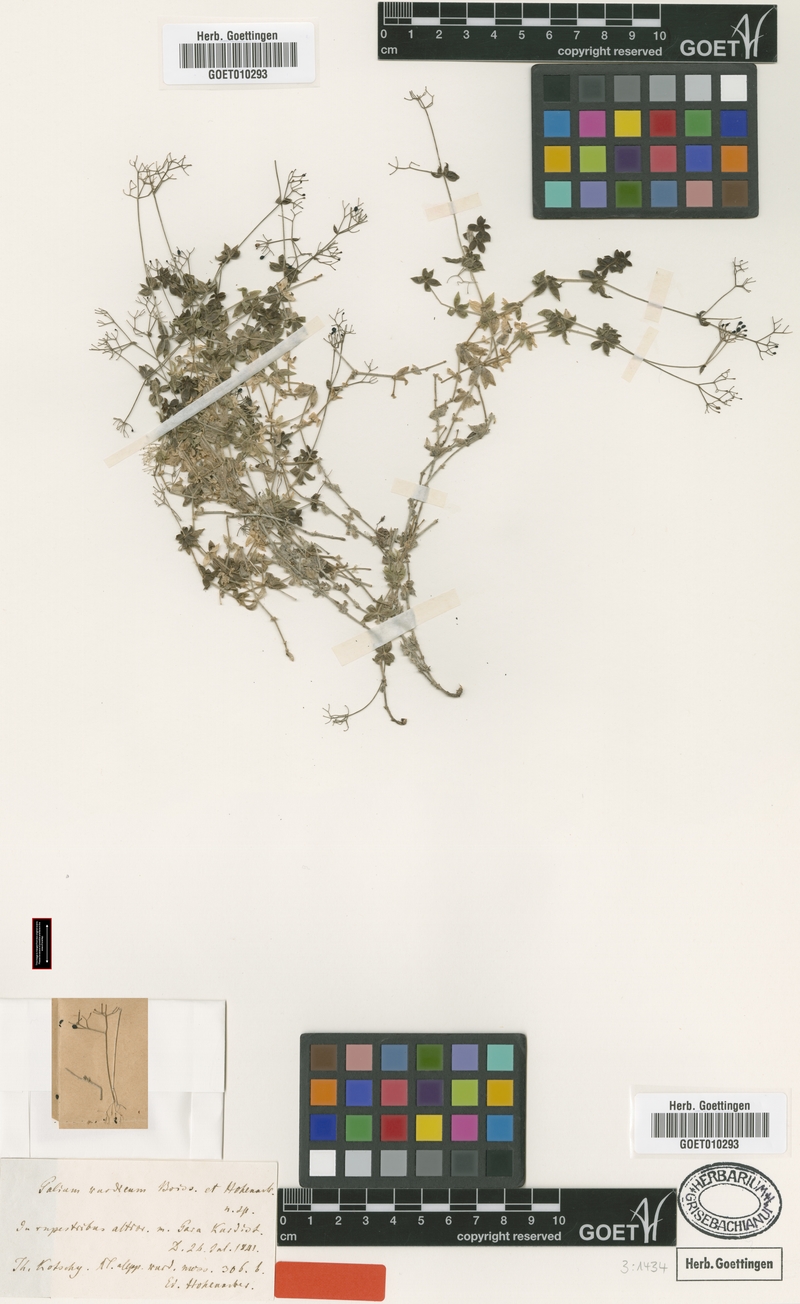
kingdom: Plantae
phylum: Tracheophyta
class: Magnoliopsida
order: Gentianales
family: Rubiaceae
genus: Galium
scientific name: Galium kurdicum
